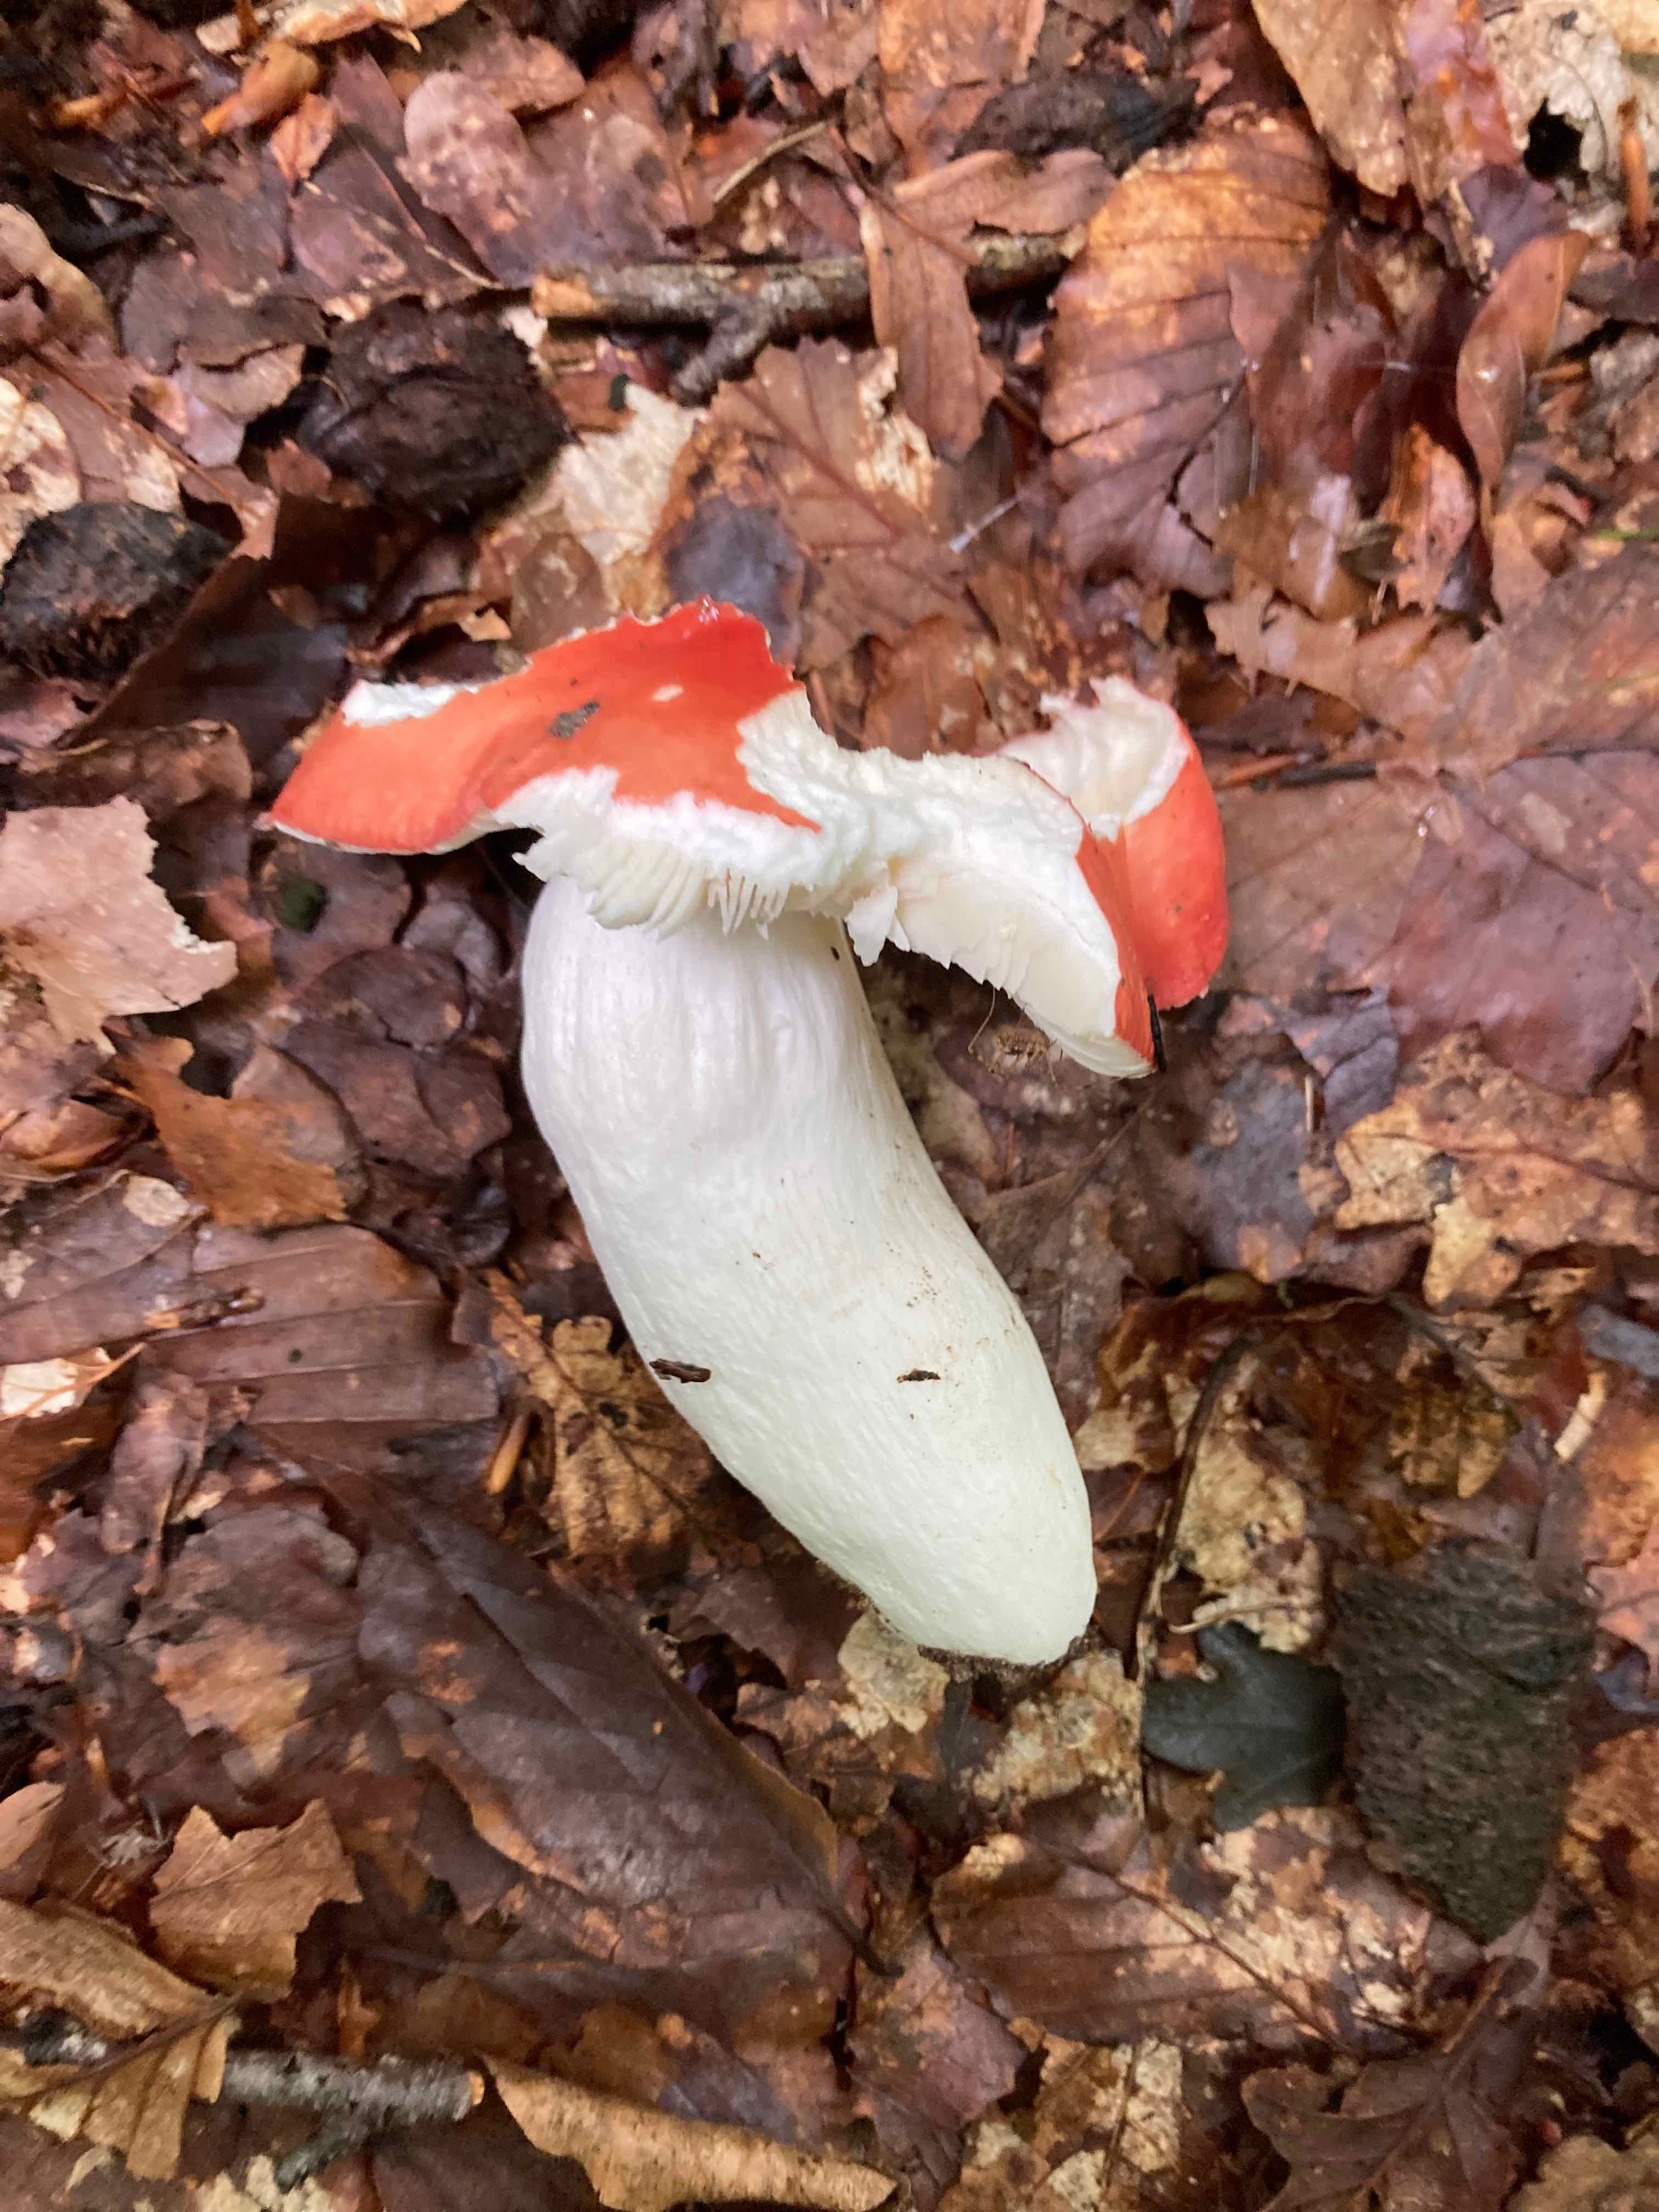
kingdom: Fungi
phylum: Basidiomycota
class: Agaricomycetes
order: Russulales
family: Russulaceae
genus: Russula
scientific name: Russula pseudointegra
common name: cinnoberrød skørhat
